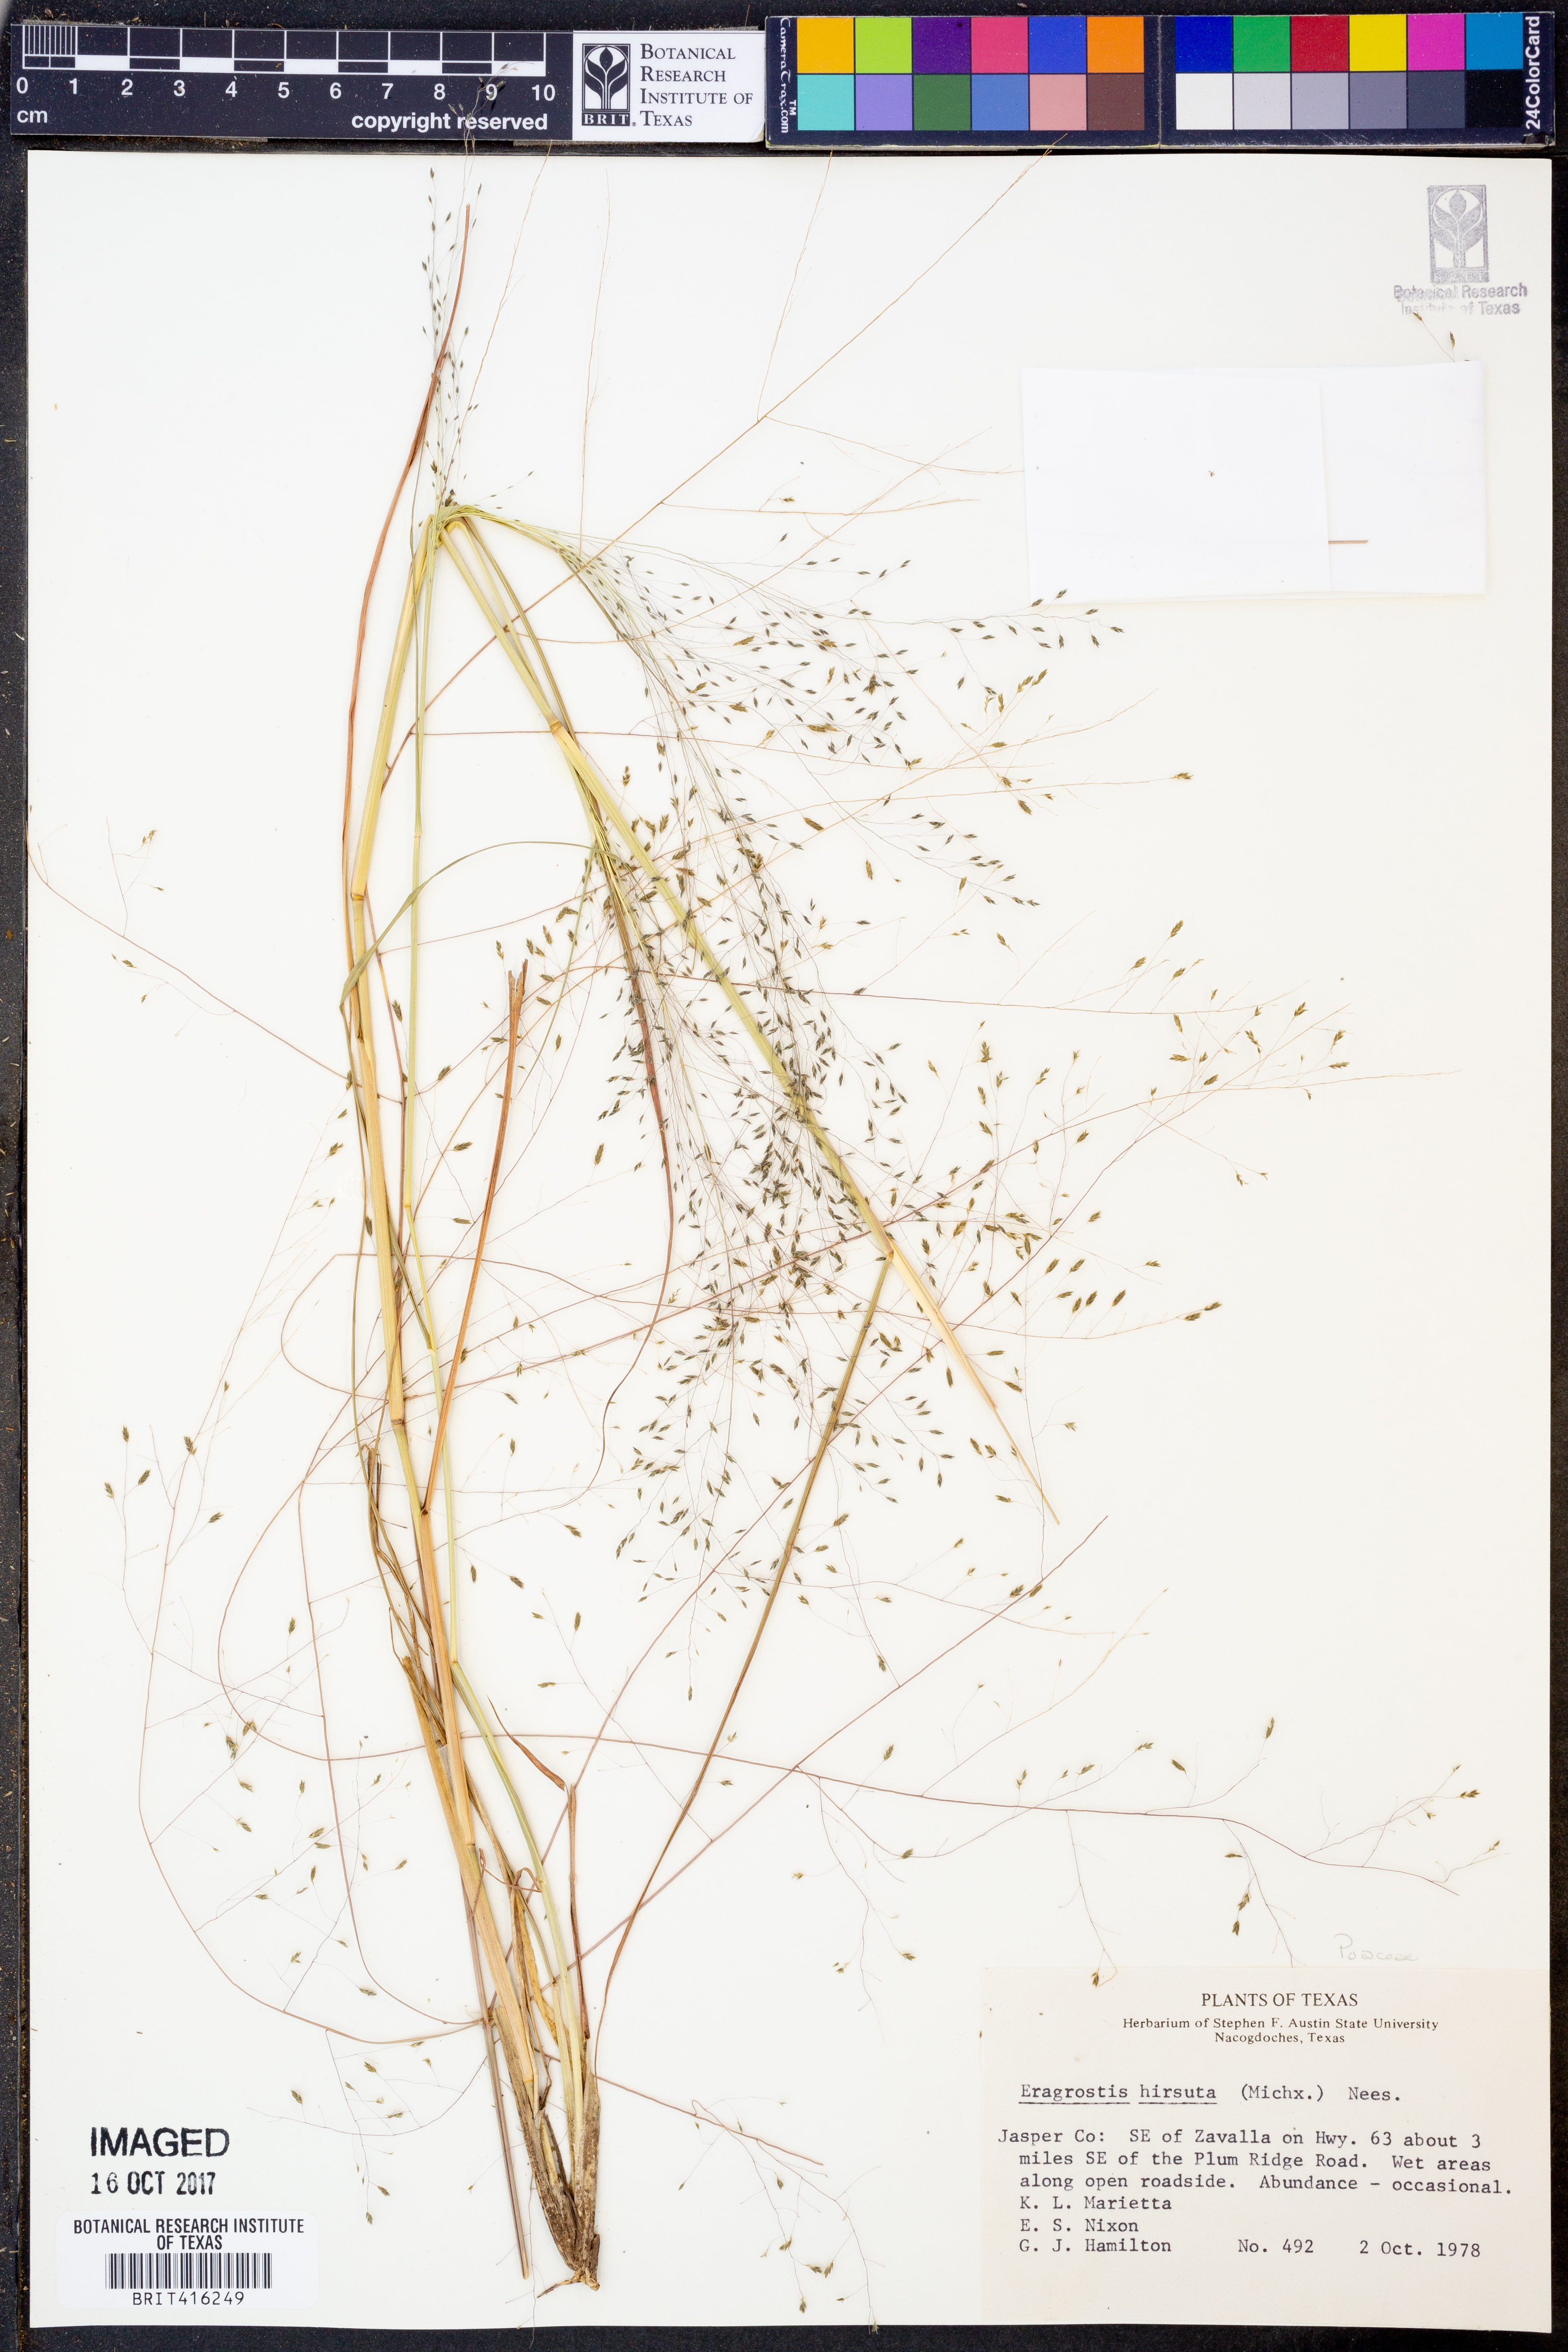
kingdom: Plantae
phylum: Tracheophyta
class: Liliopsida
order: Poales
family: Poaceae
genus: Eragrostis
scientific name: Eragrostis hirsuta
